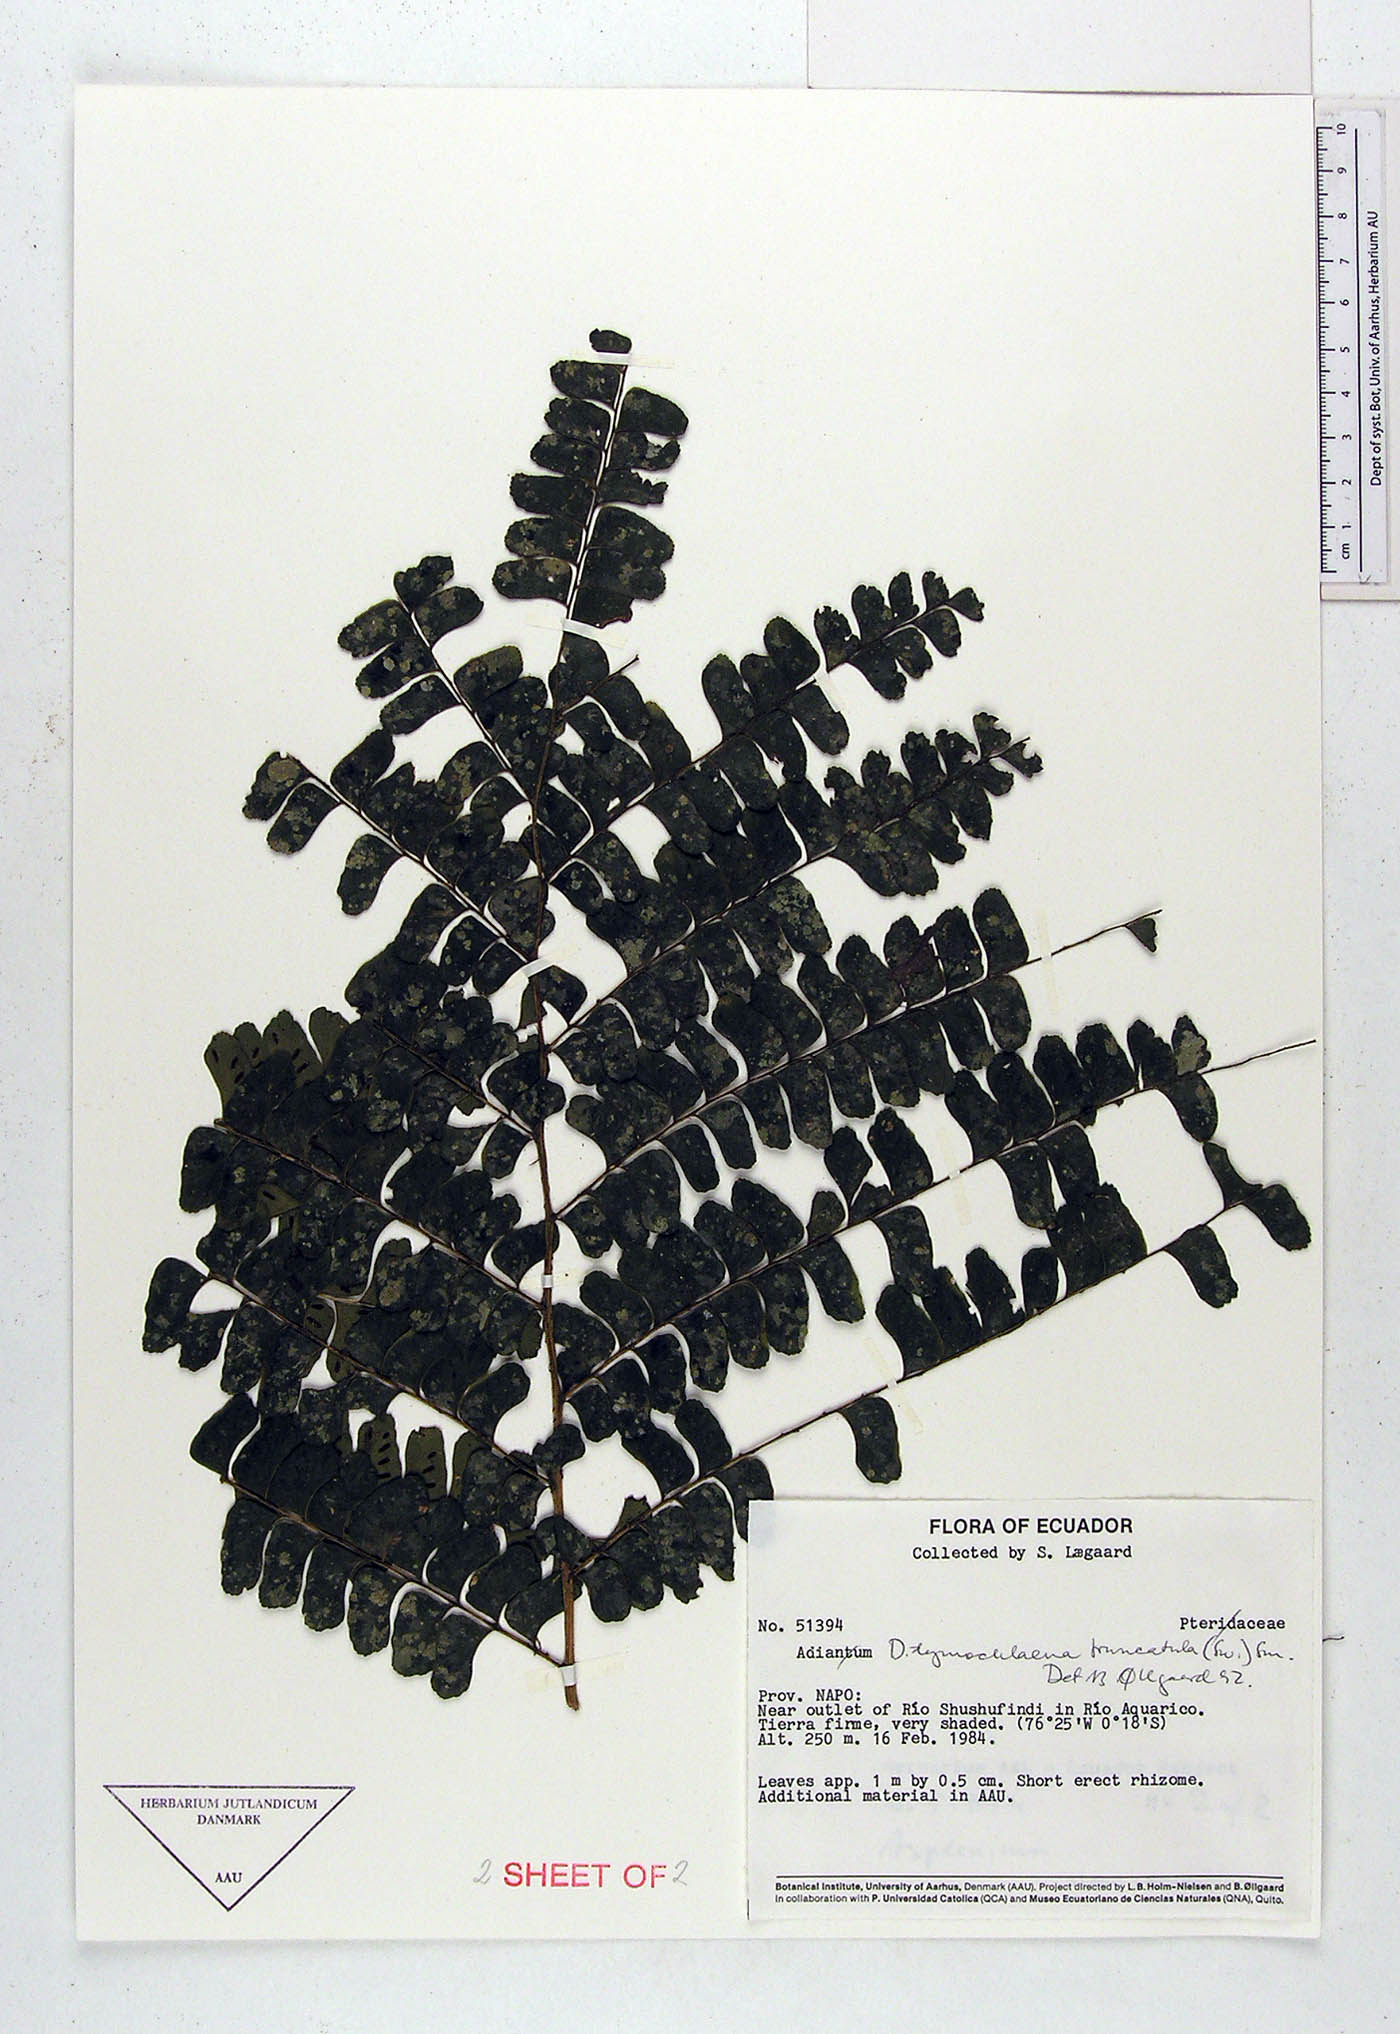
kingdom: Plantae
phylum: Tracheophyta
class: Polypodiopsida
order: Polypodiales
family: Pteridaceae
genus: Adiantum
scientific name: Adiantum
